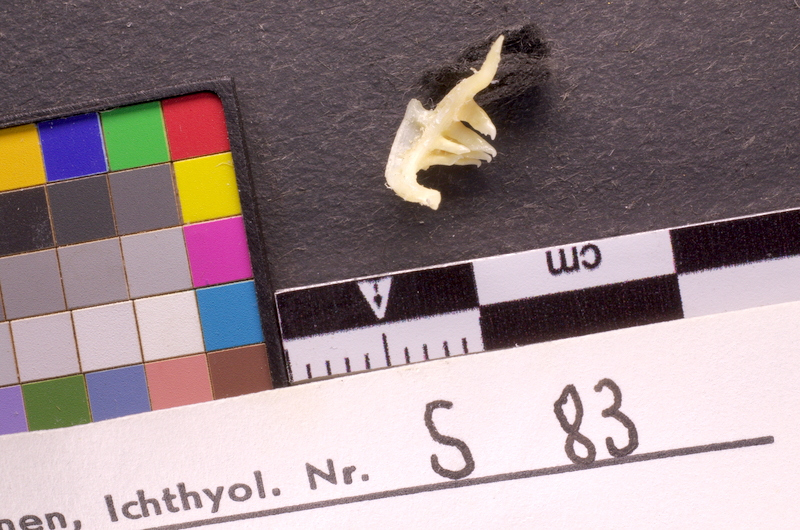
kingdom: Animalia
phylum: Chordata
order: Cypriniformes
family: Cyprinidae
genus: Petroleuciscus
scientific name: Petroleuciscus borysthenicus
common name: Black sea chub
